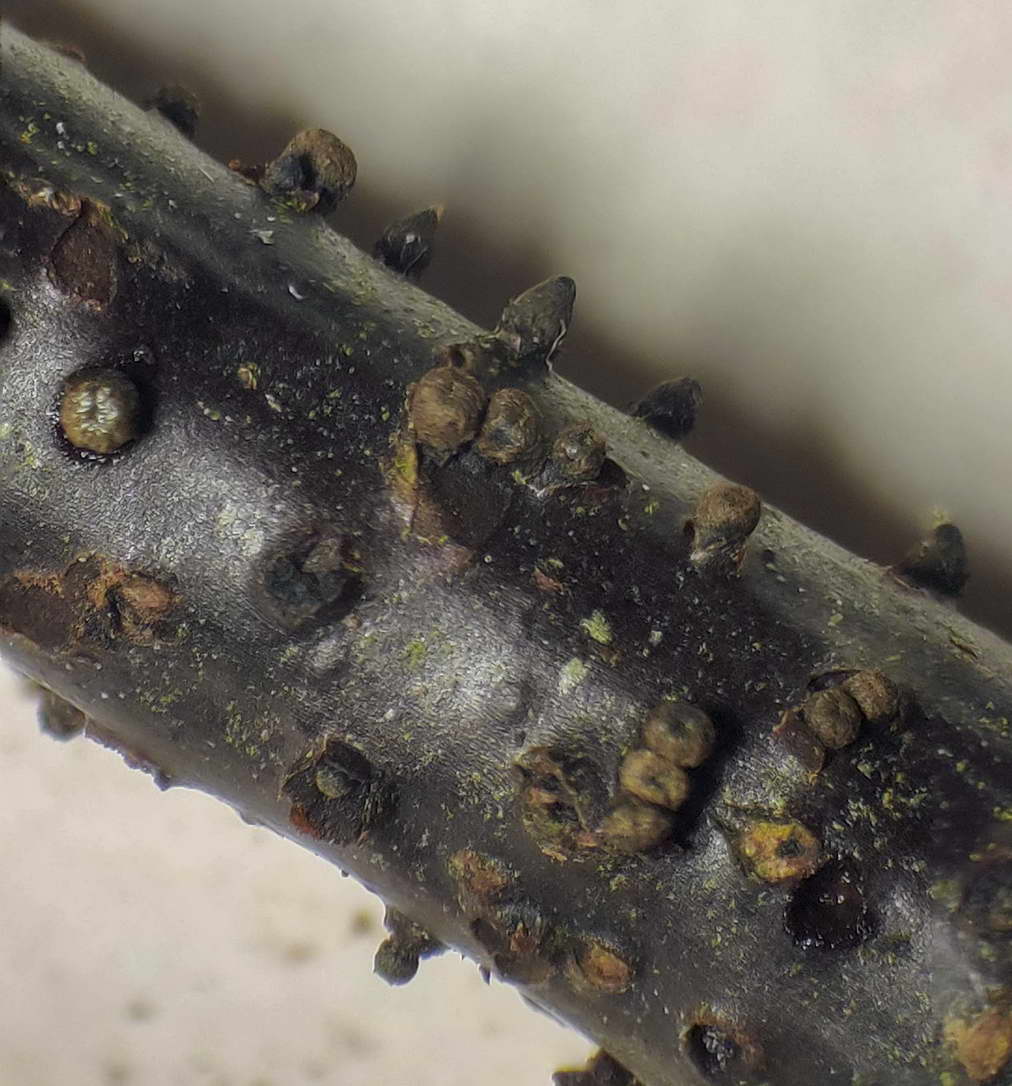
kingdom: Fungi
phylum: Ascomycota
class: Leotiomycetes
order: Helotiales
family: Godroniaceae
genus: Godronia
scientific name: Godronia uberiformis
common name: solbær-urneskive
